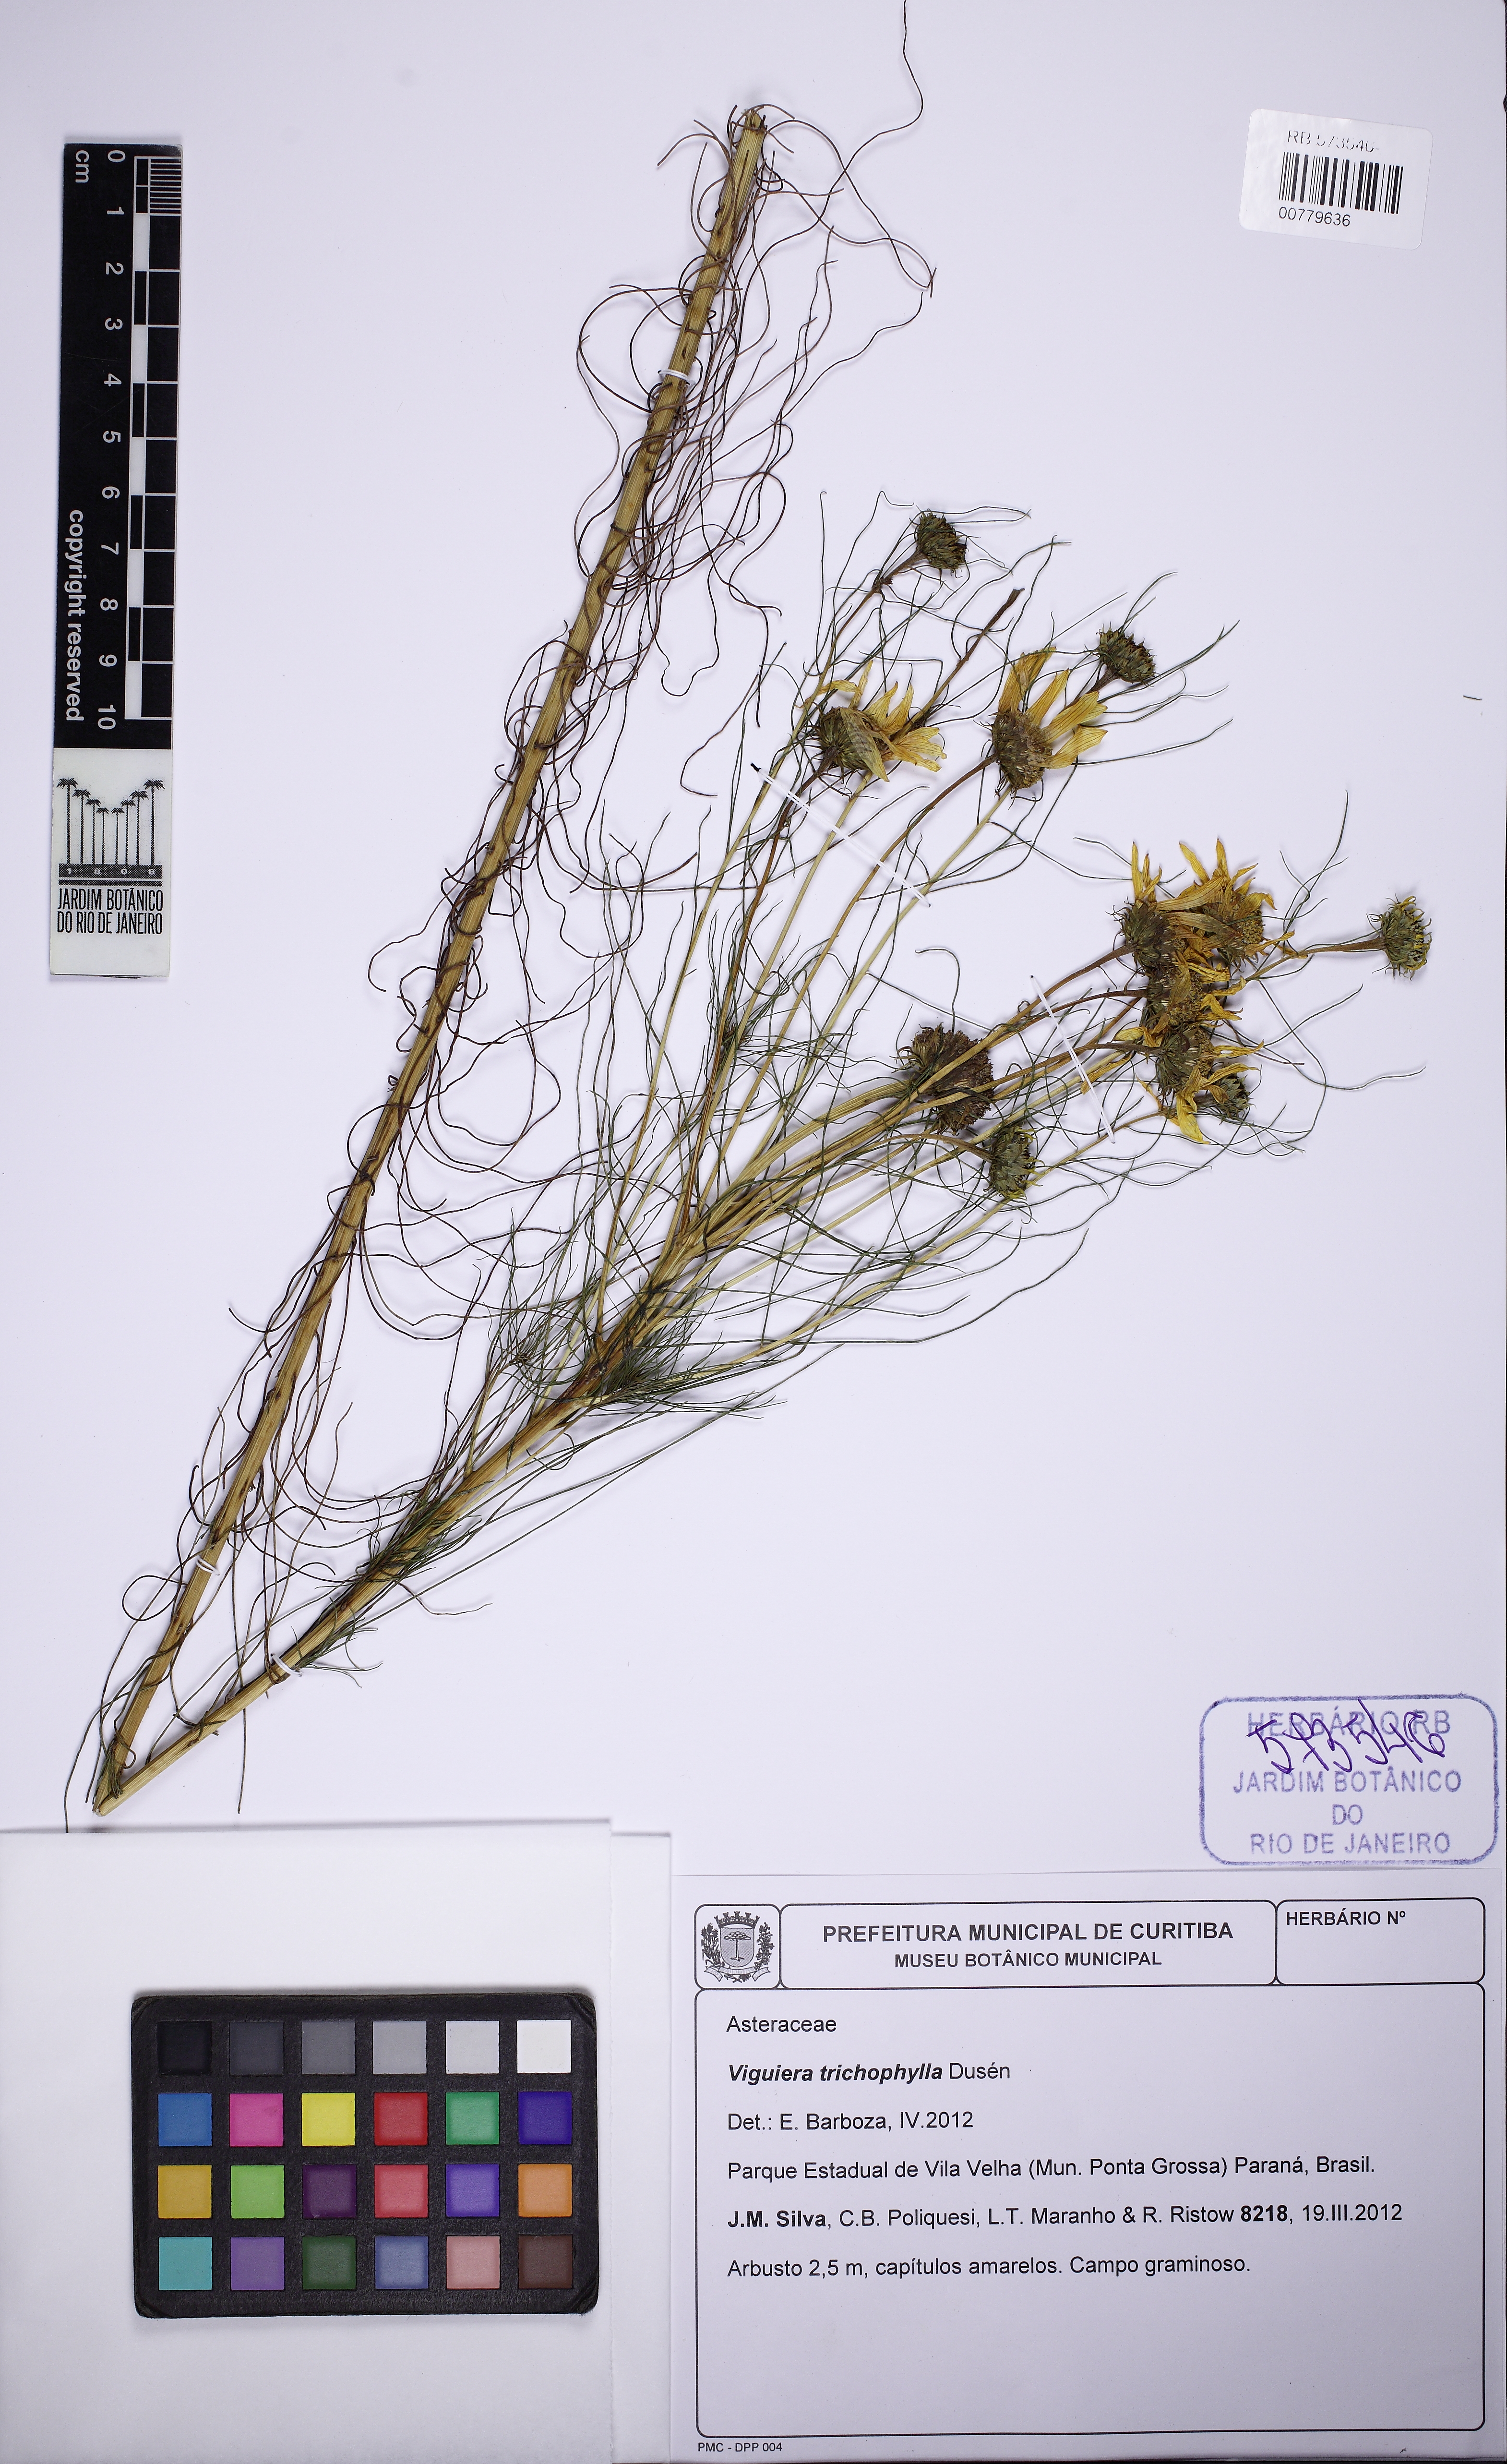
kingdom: Plantae
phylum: Tracheophyta
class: Magnoliopsida
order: Asterales
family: Asteraceae
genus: Aldama
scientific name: Aldama trichophylla
